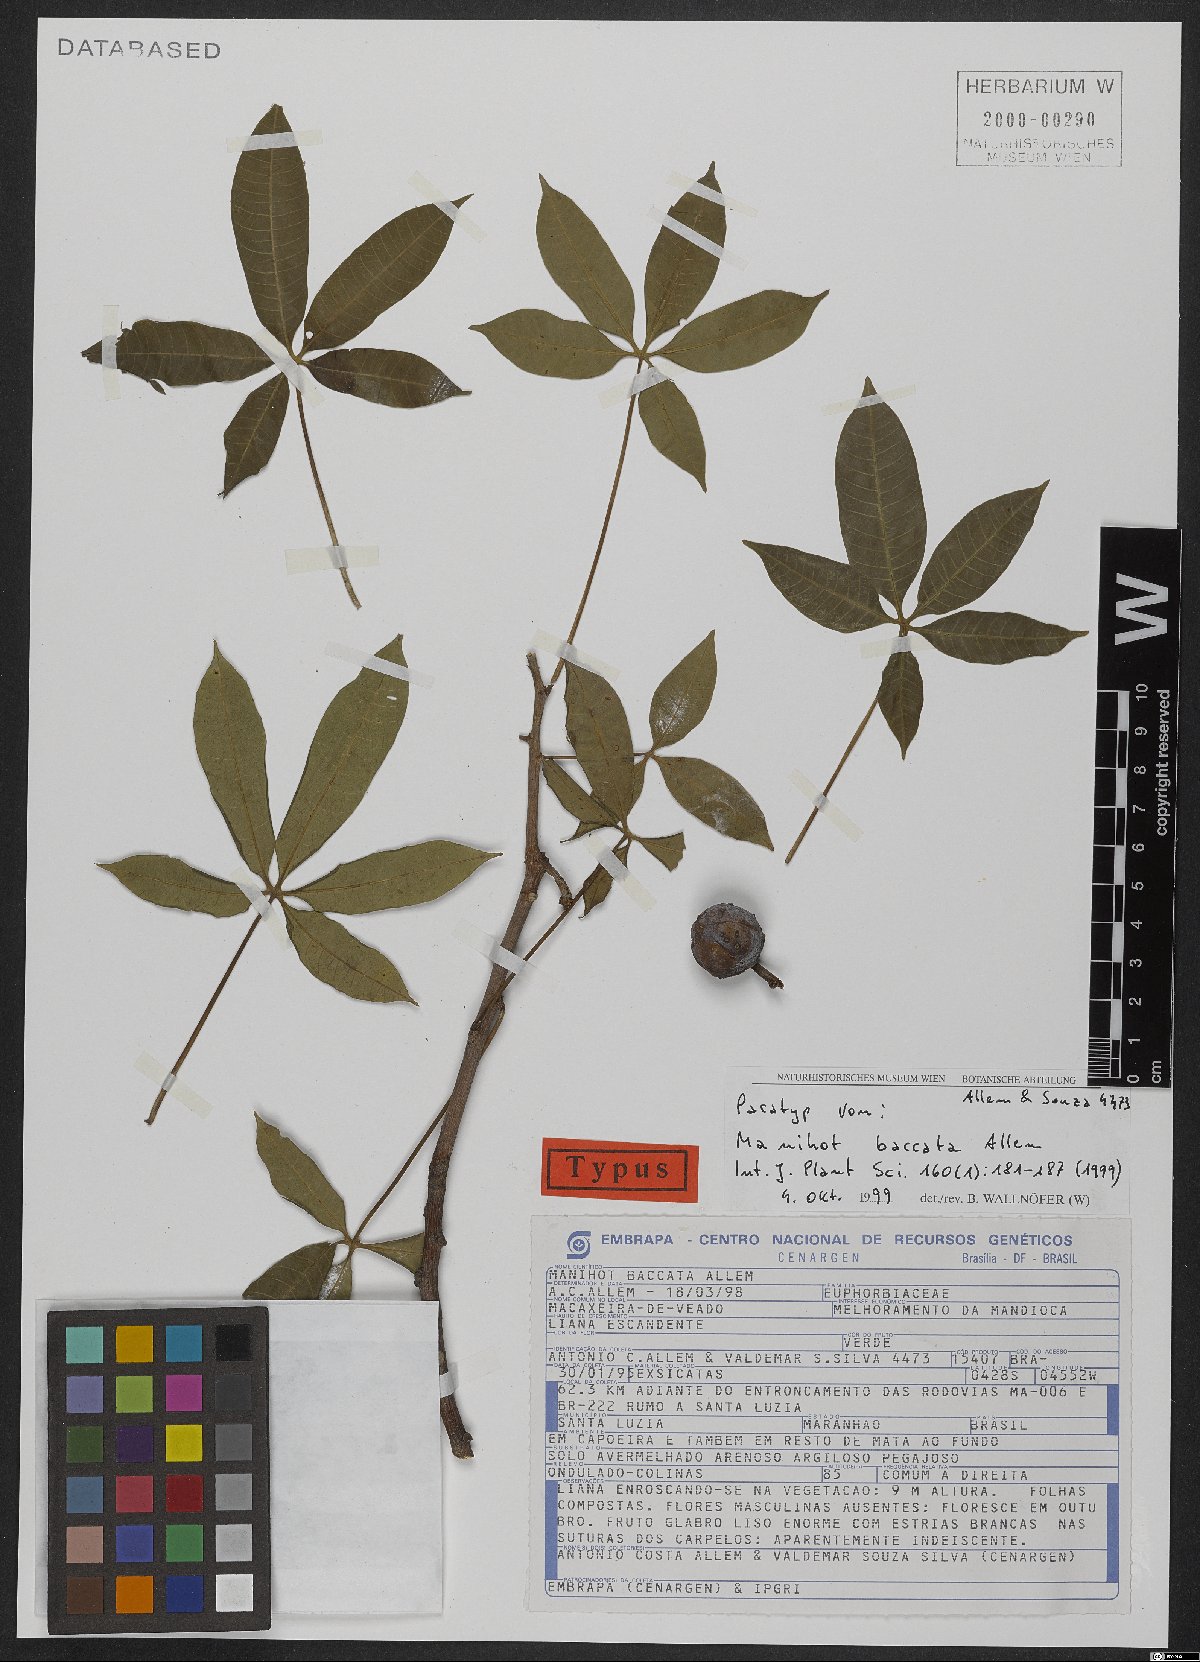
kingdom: Plantae
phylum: Tracheophyta
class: Magnoliopsida
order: Malpighiales
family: Euphorbiaceae
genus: Manihot
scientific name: Manihot baccata
